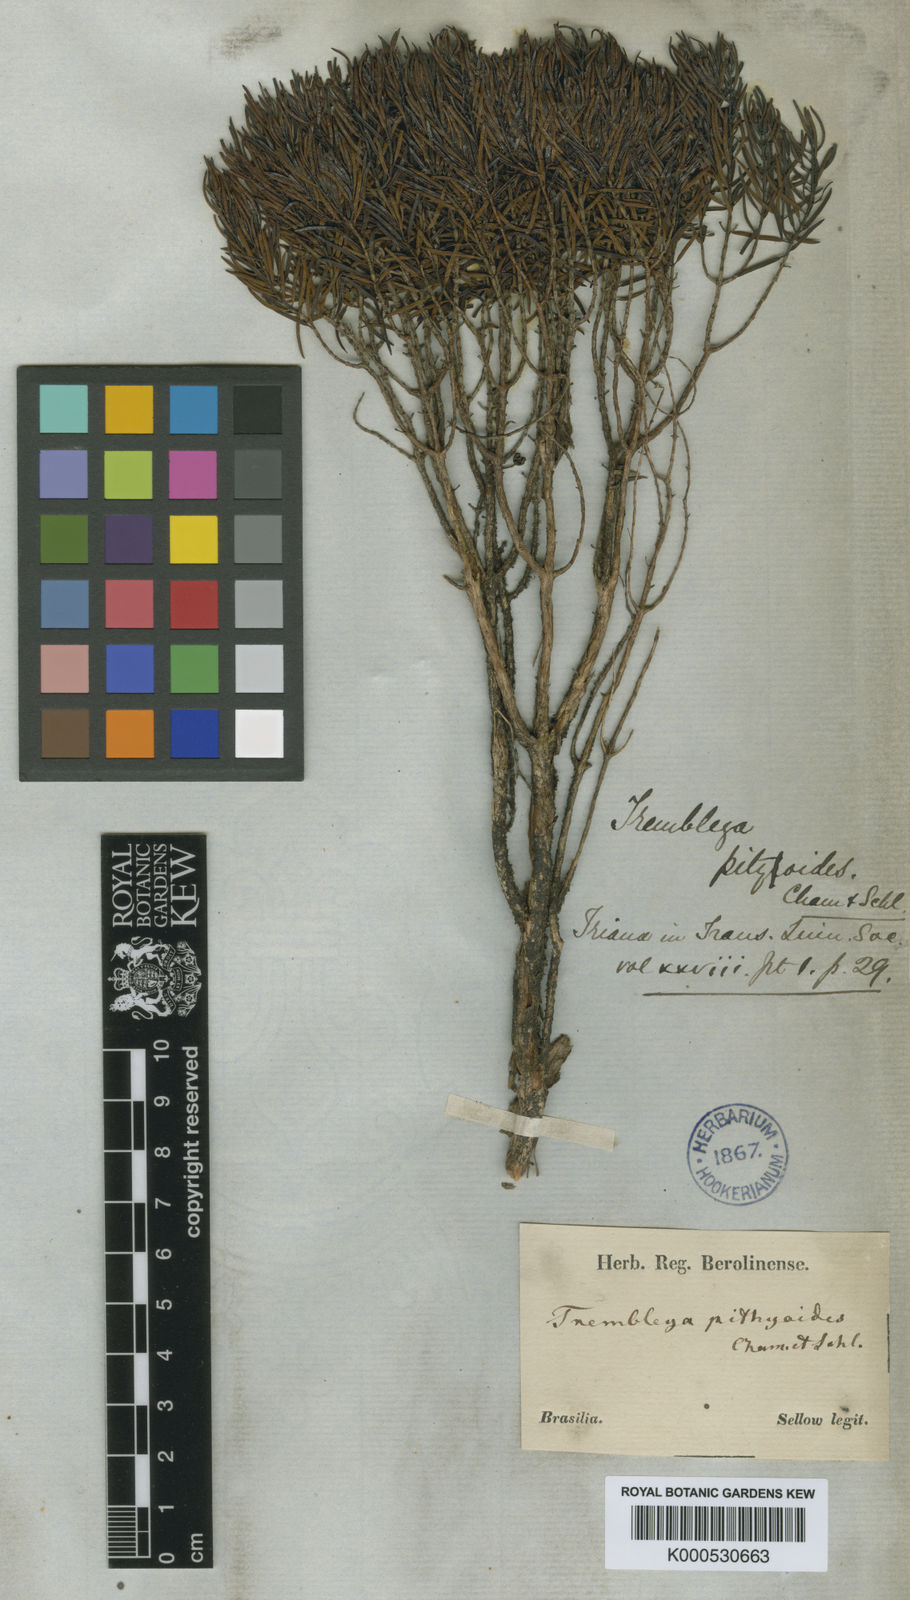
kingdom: Plantae
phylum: Tracheophyta
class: Magnoliopsida
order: Myrtales
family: Melastomataceae
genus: Microlicia
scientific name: Microlicia pithyoides
